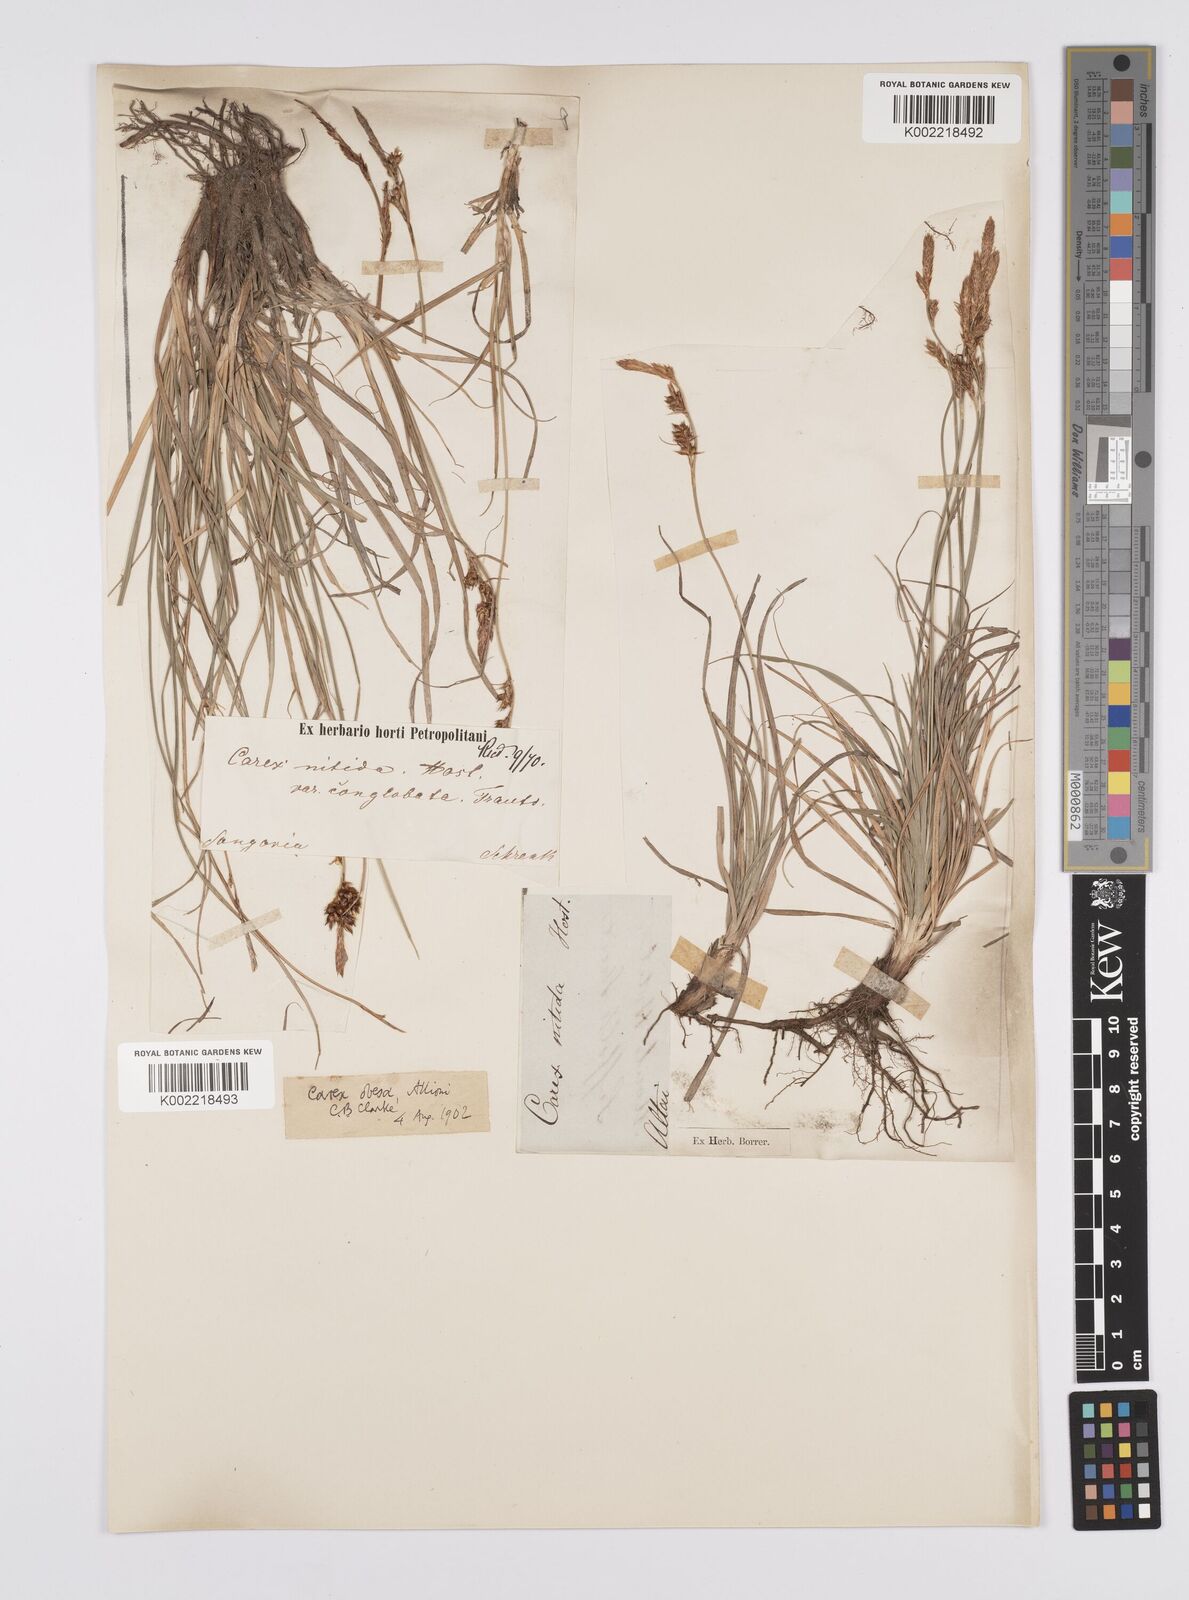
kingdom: Plantae
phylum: Tracheophyta
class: Liliopsida
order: Poales
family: Cyperaceae
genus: Carex
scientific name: Carex liparocarpos
